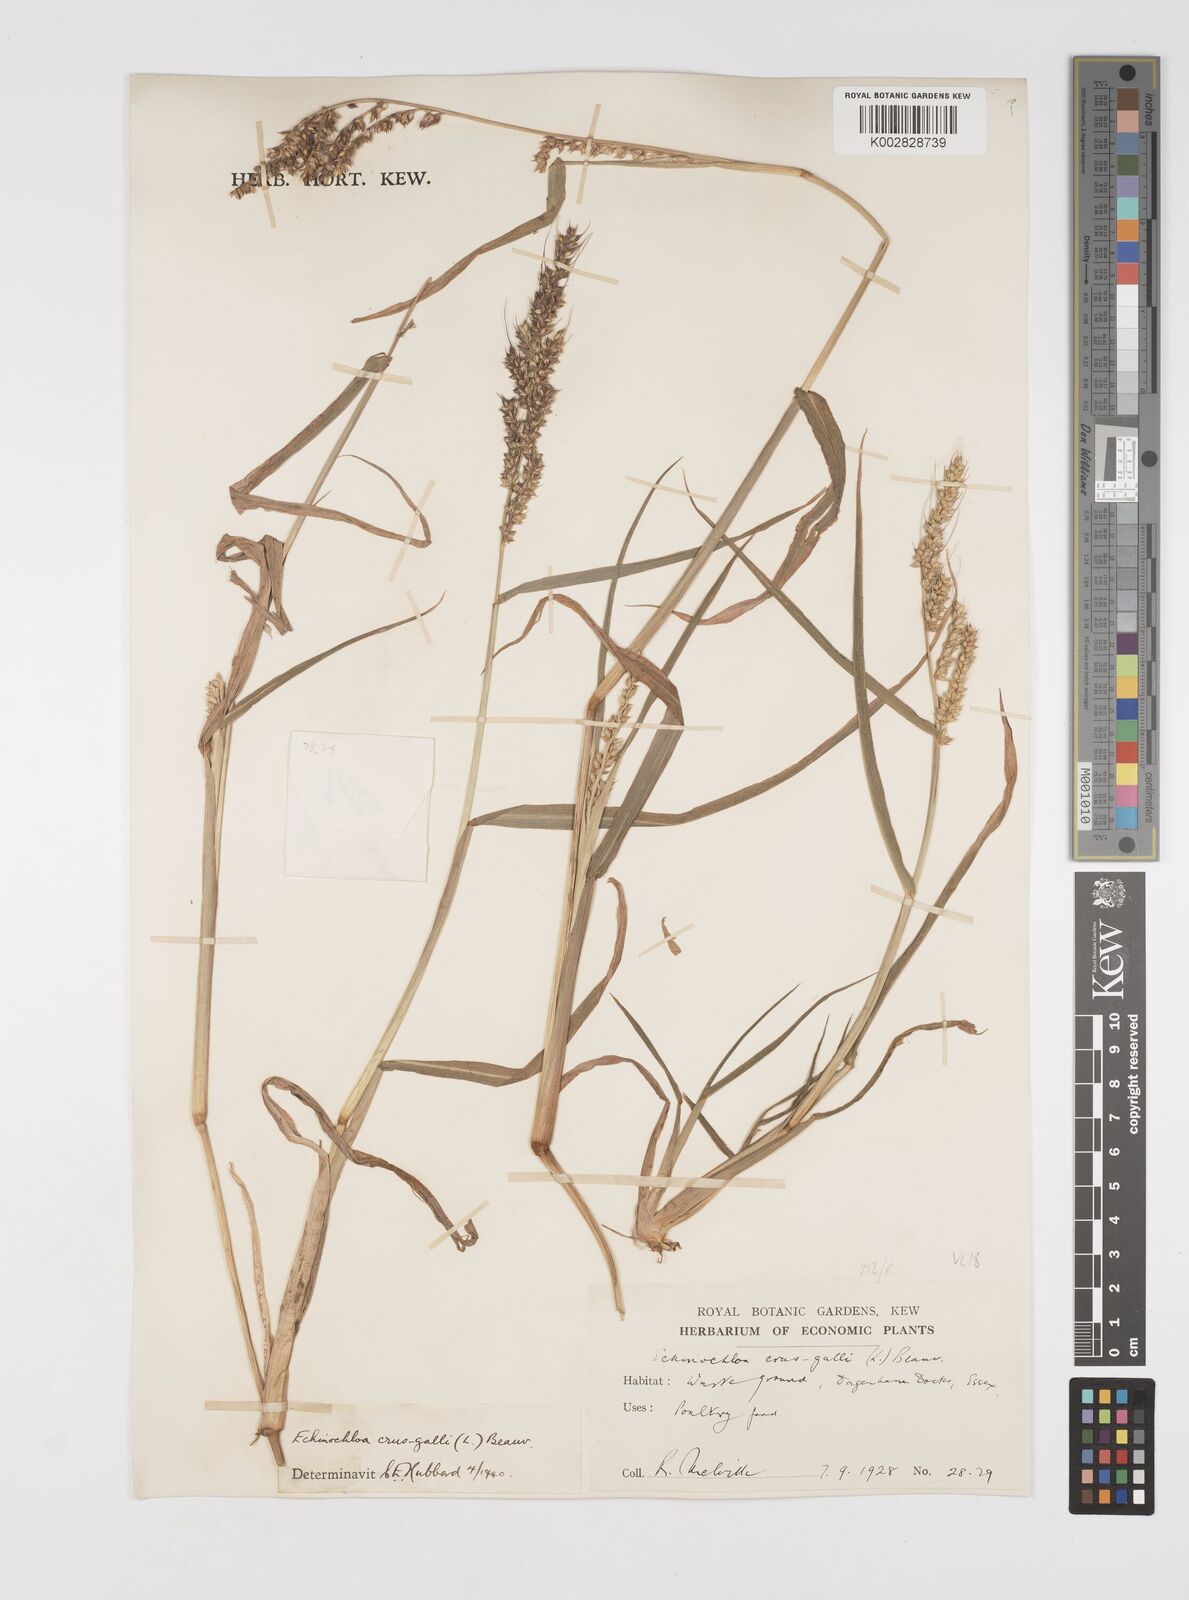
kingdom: Plantae
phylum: Tracheophyta
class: Liliopsida
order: Poales
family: Poaceae
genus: Echinochloa
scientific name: Echinochloa crus-galli
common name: Cockspur
